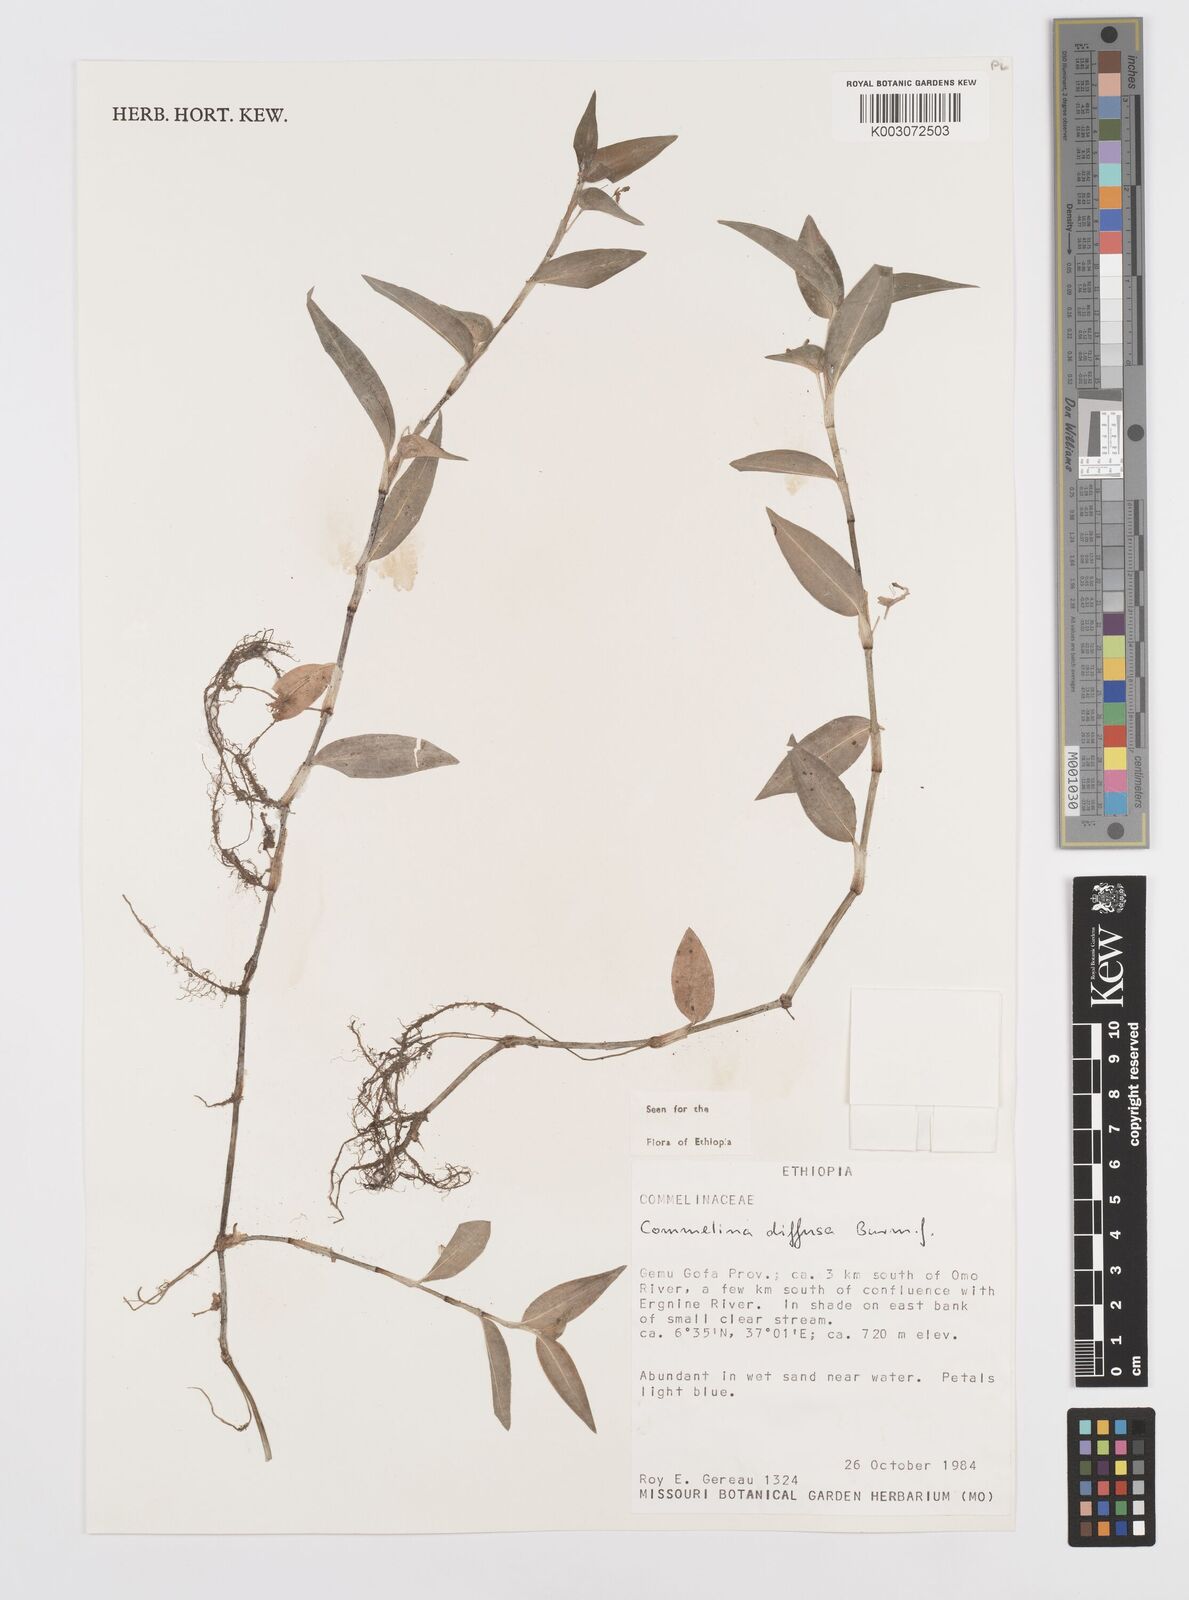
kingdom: Plantae
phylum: Tracheophyta
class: Liliopsida
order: Commelinales
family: Commelinaceae
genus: Commelina
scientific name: Commelina diffusa
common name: Climbing dayflower
